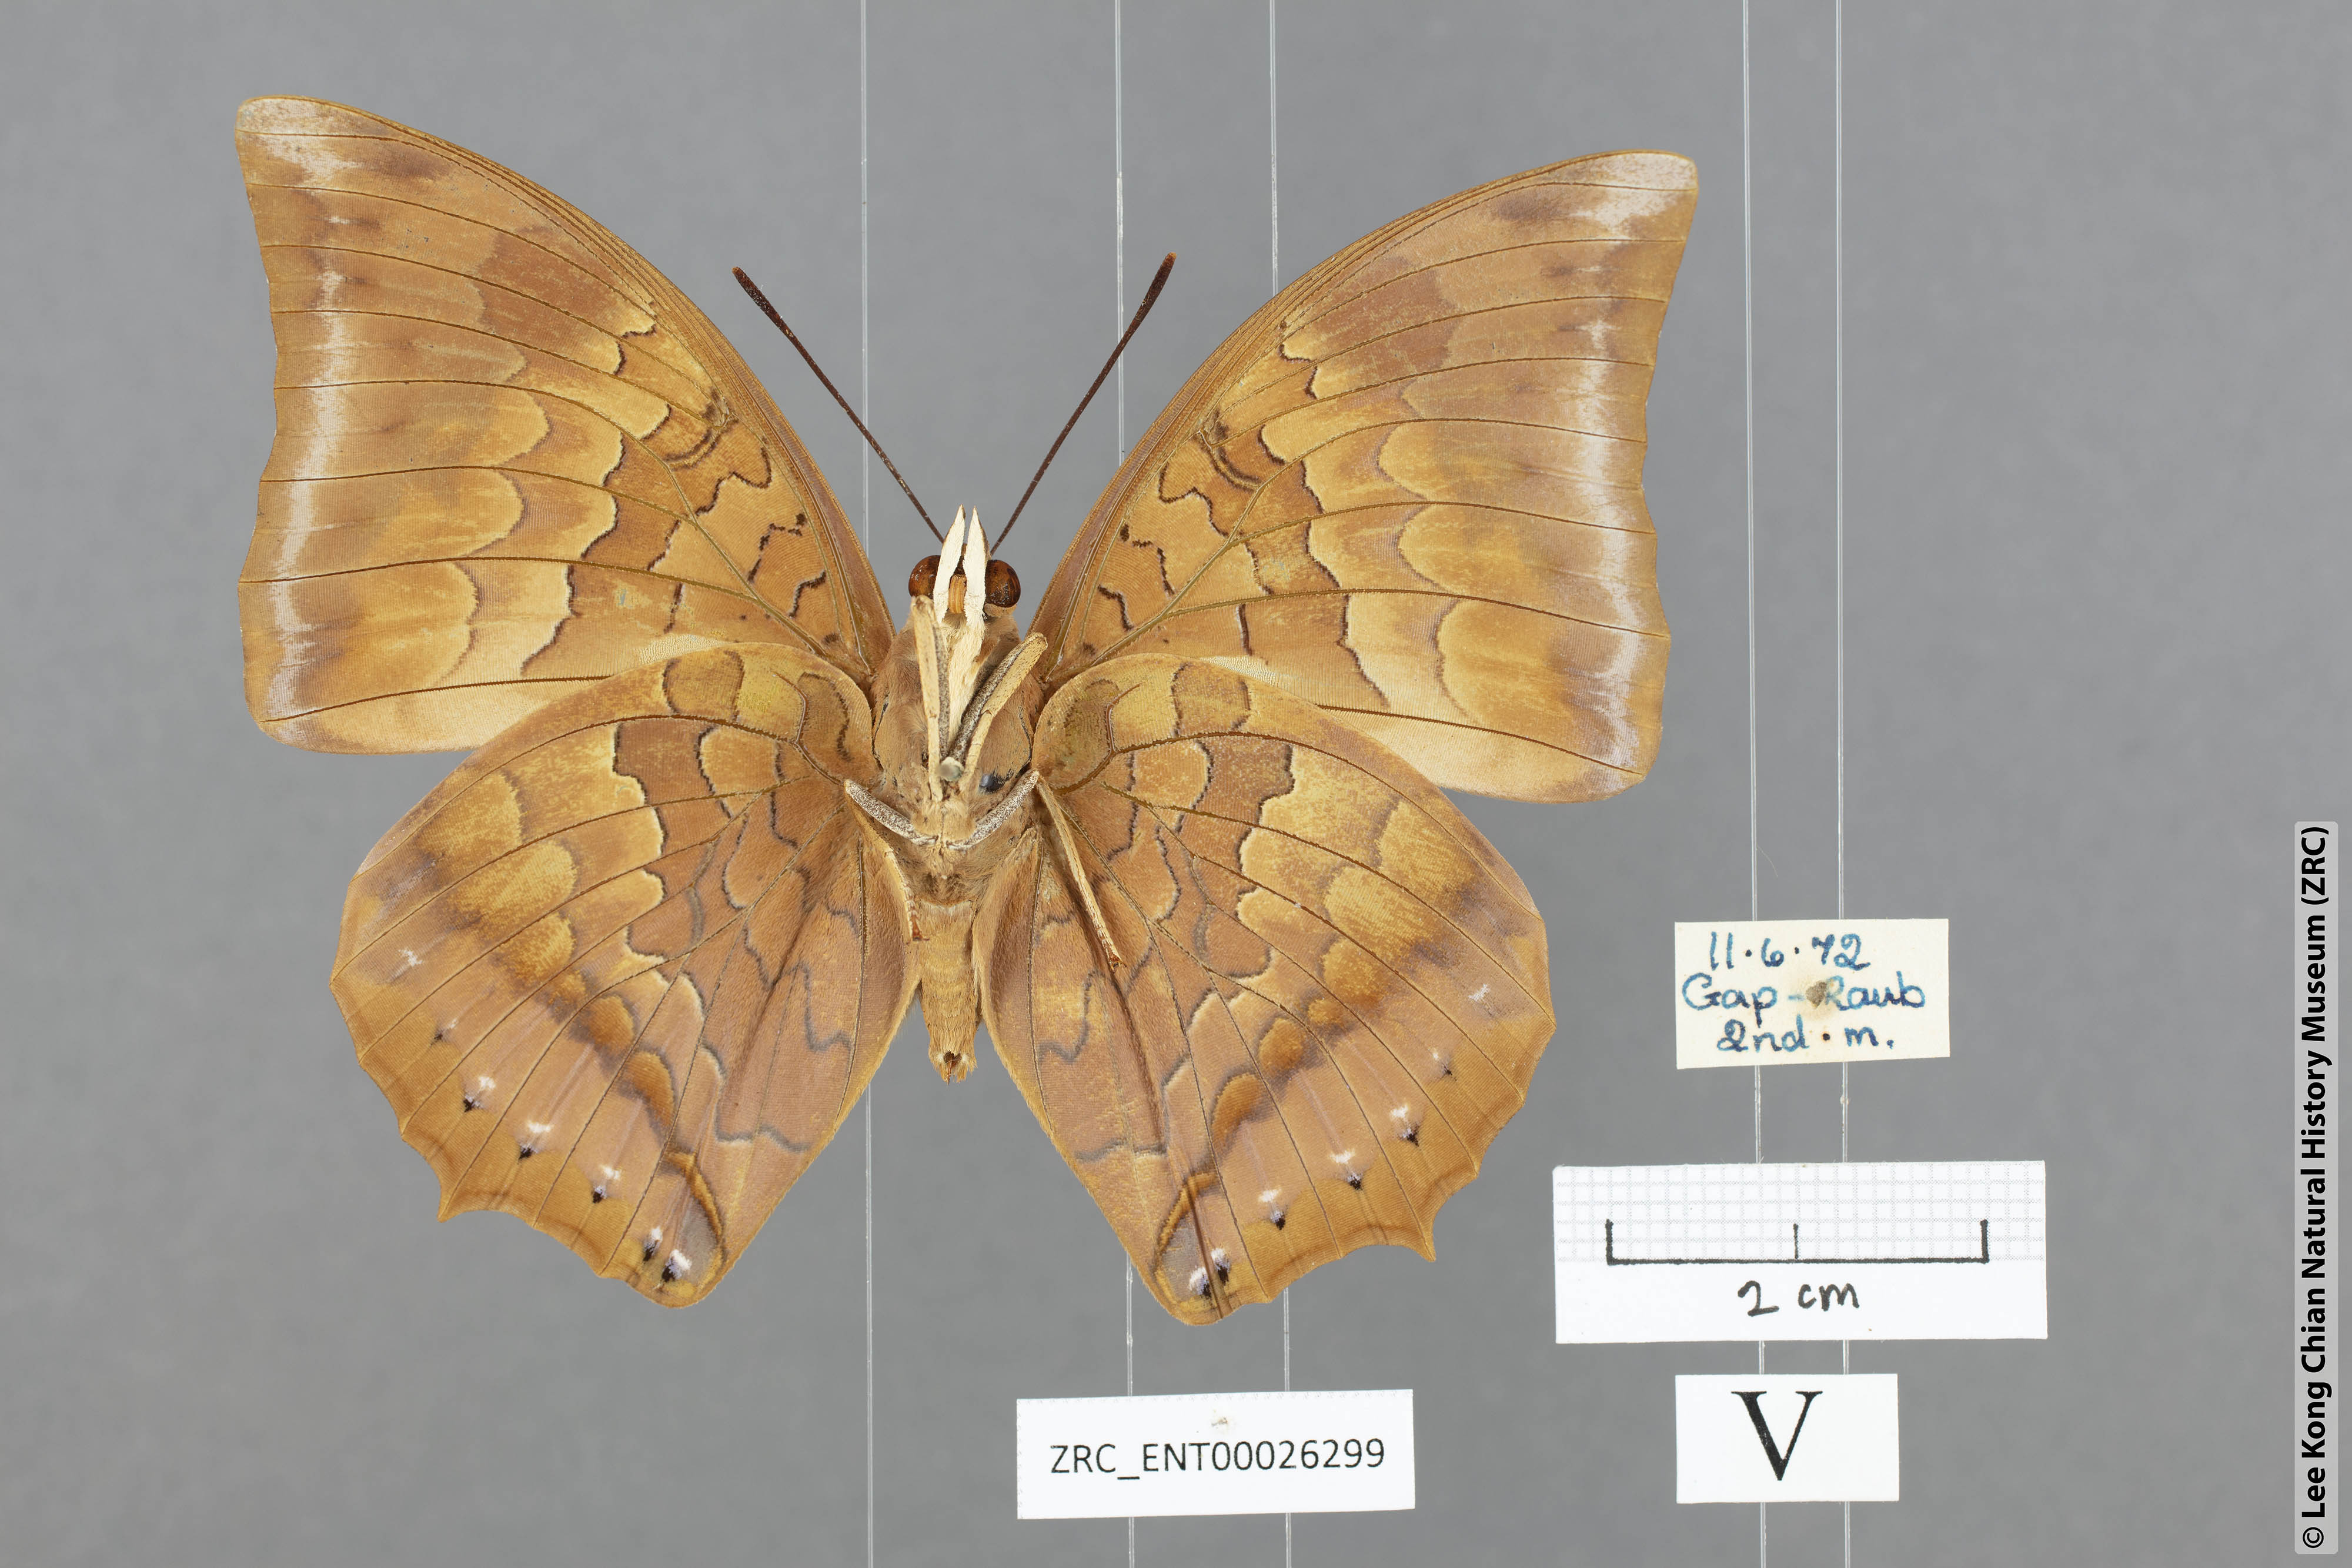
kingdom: Animalia
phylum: Arthropoda
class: Insecta
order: Lepidoptera
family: Nymphalidae
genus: Charaxes
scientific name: Charaxes bernardus
